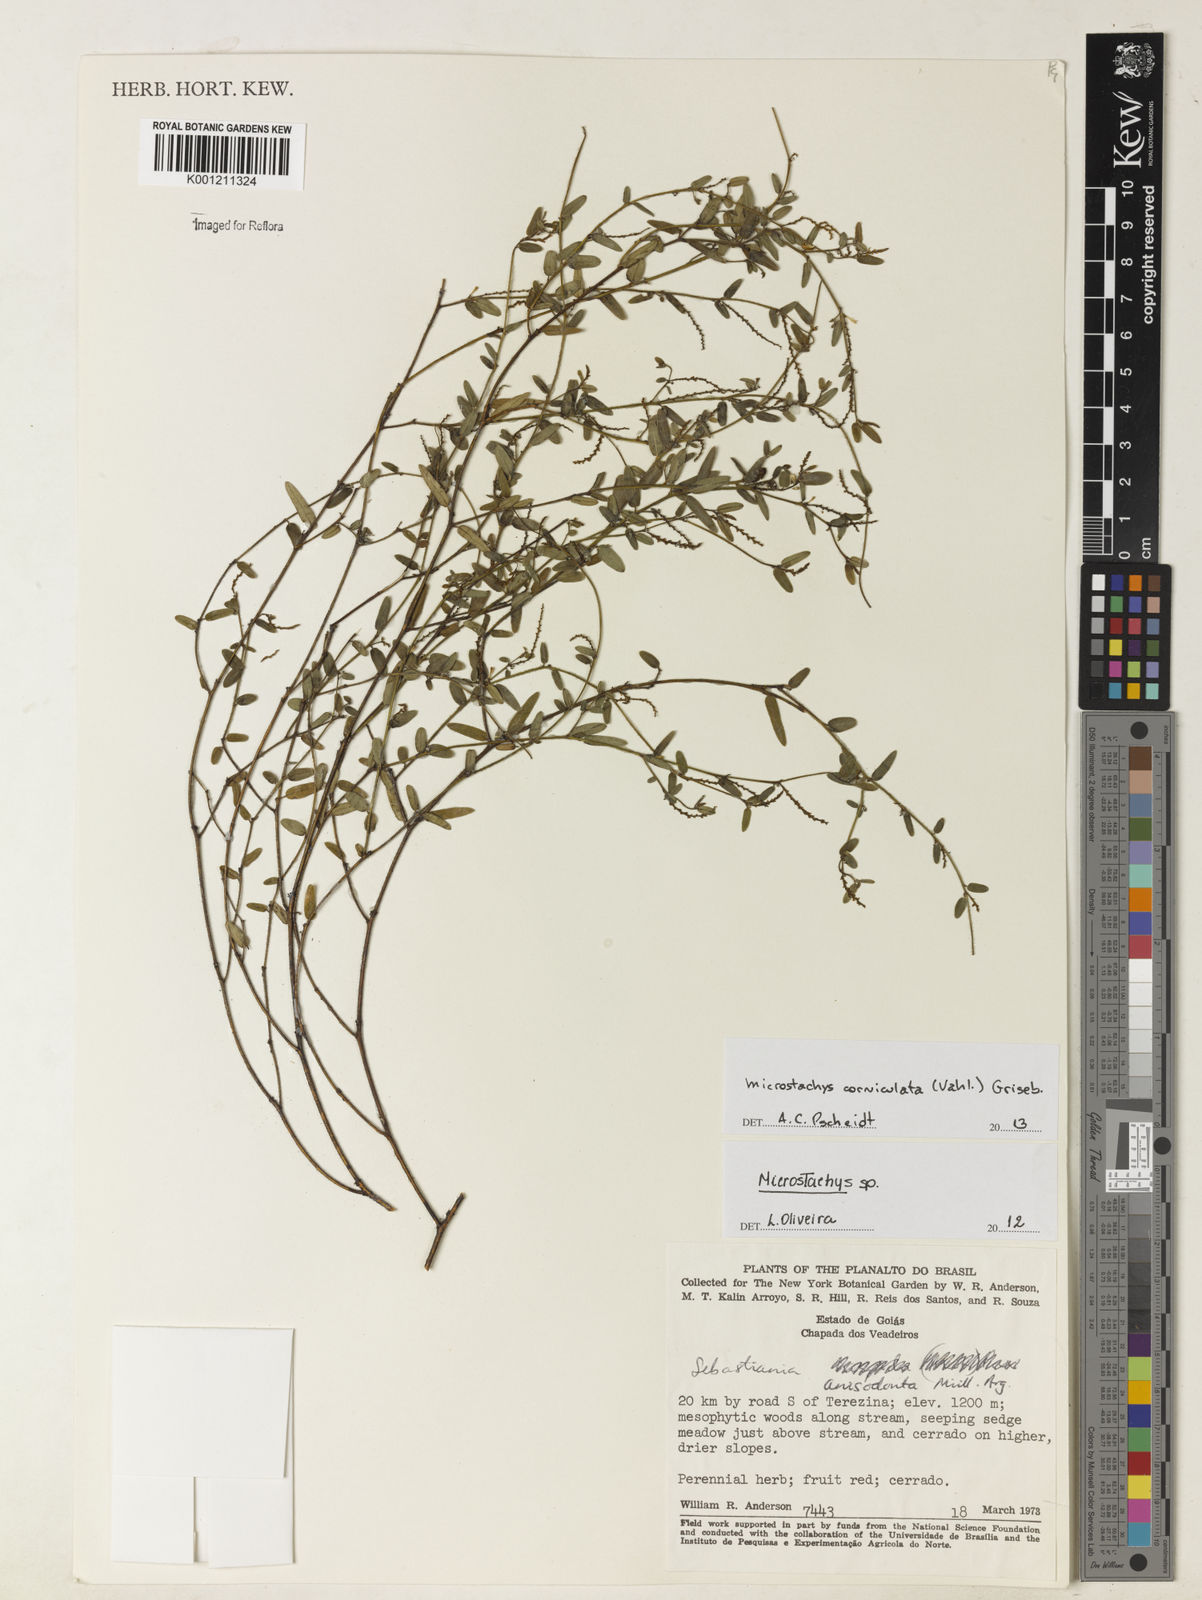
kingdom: Plantae
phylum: Tracheophyta
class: Magnoliopsida
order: Malpighiales
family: Euphorbiaceae
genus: Microstachys
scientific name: Microstachys corniculata
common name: Hato tejas
